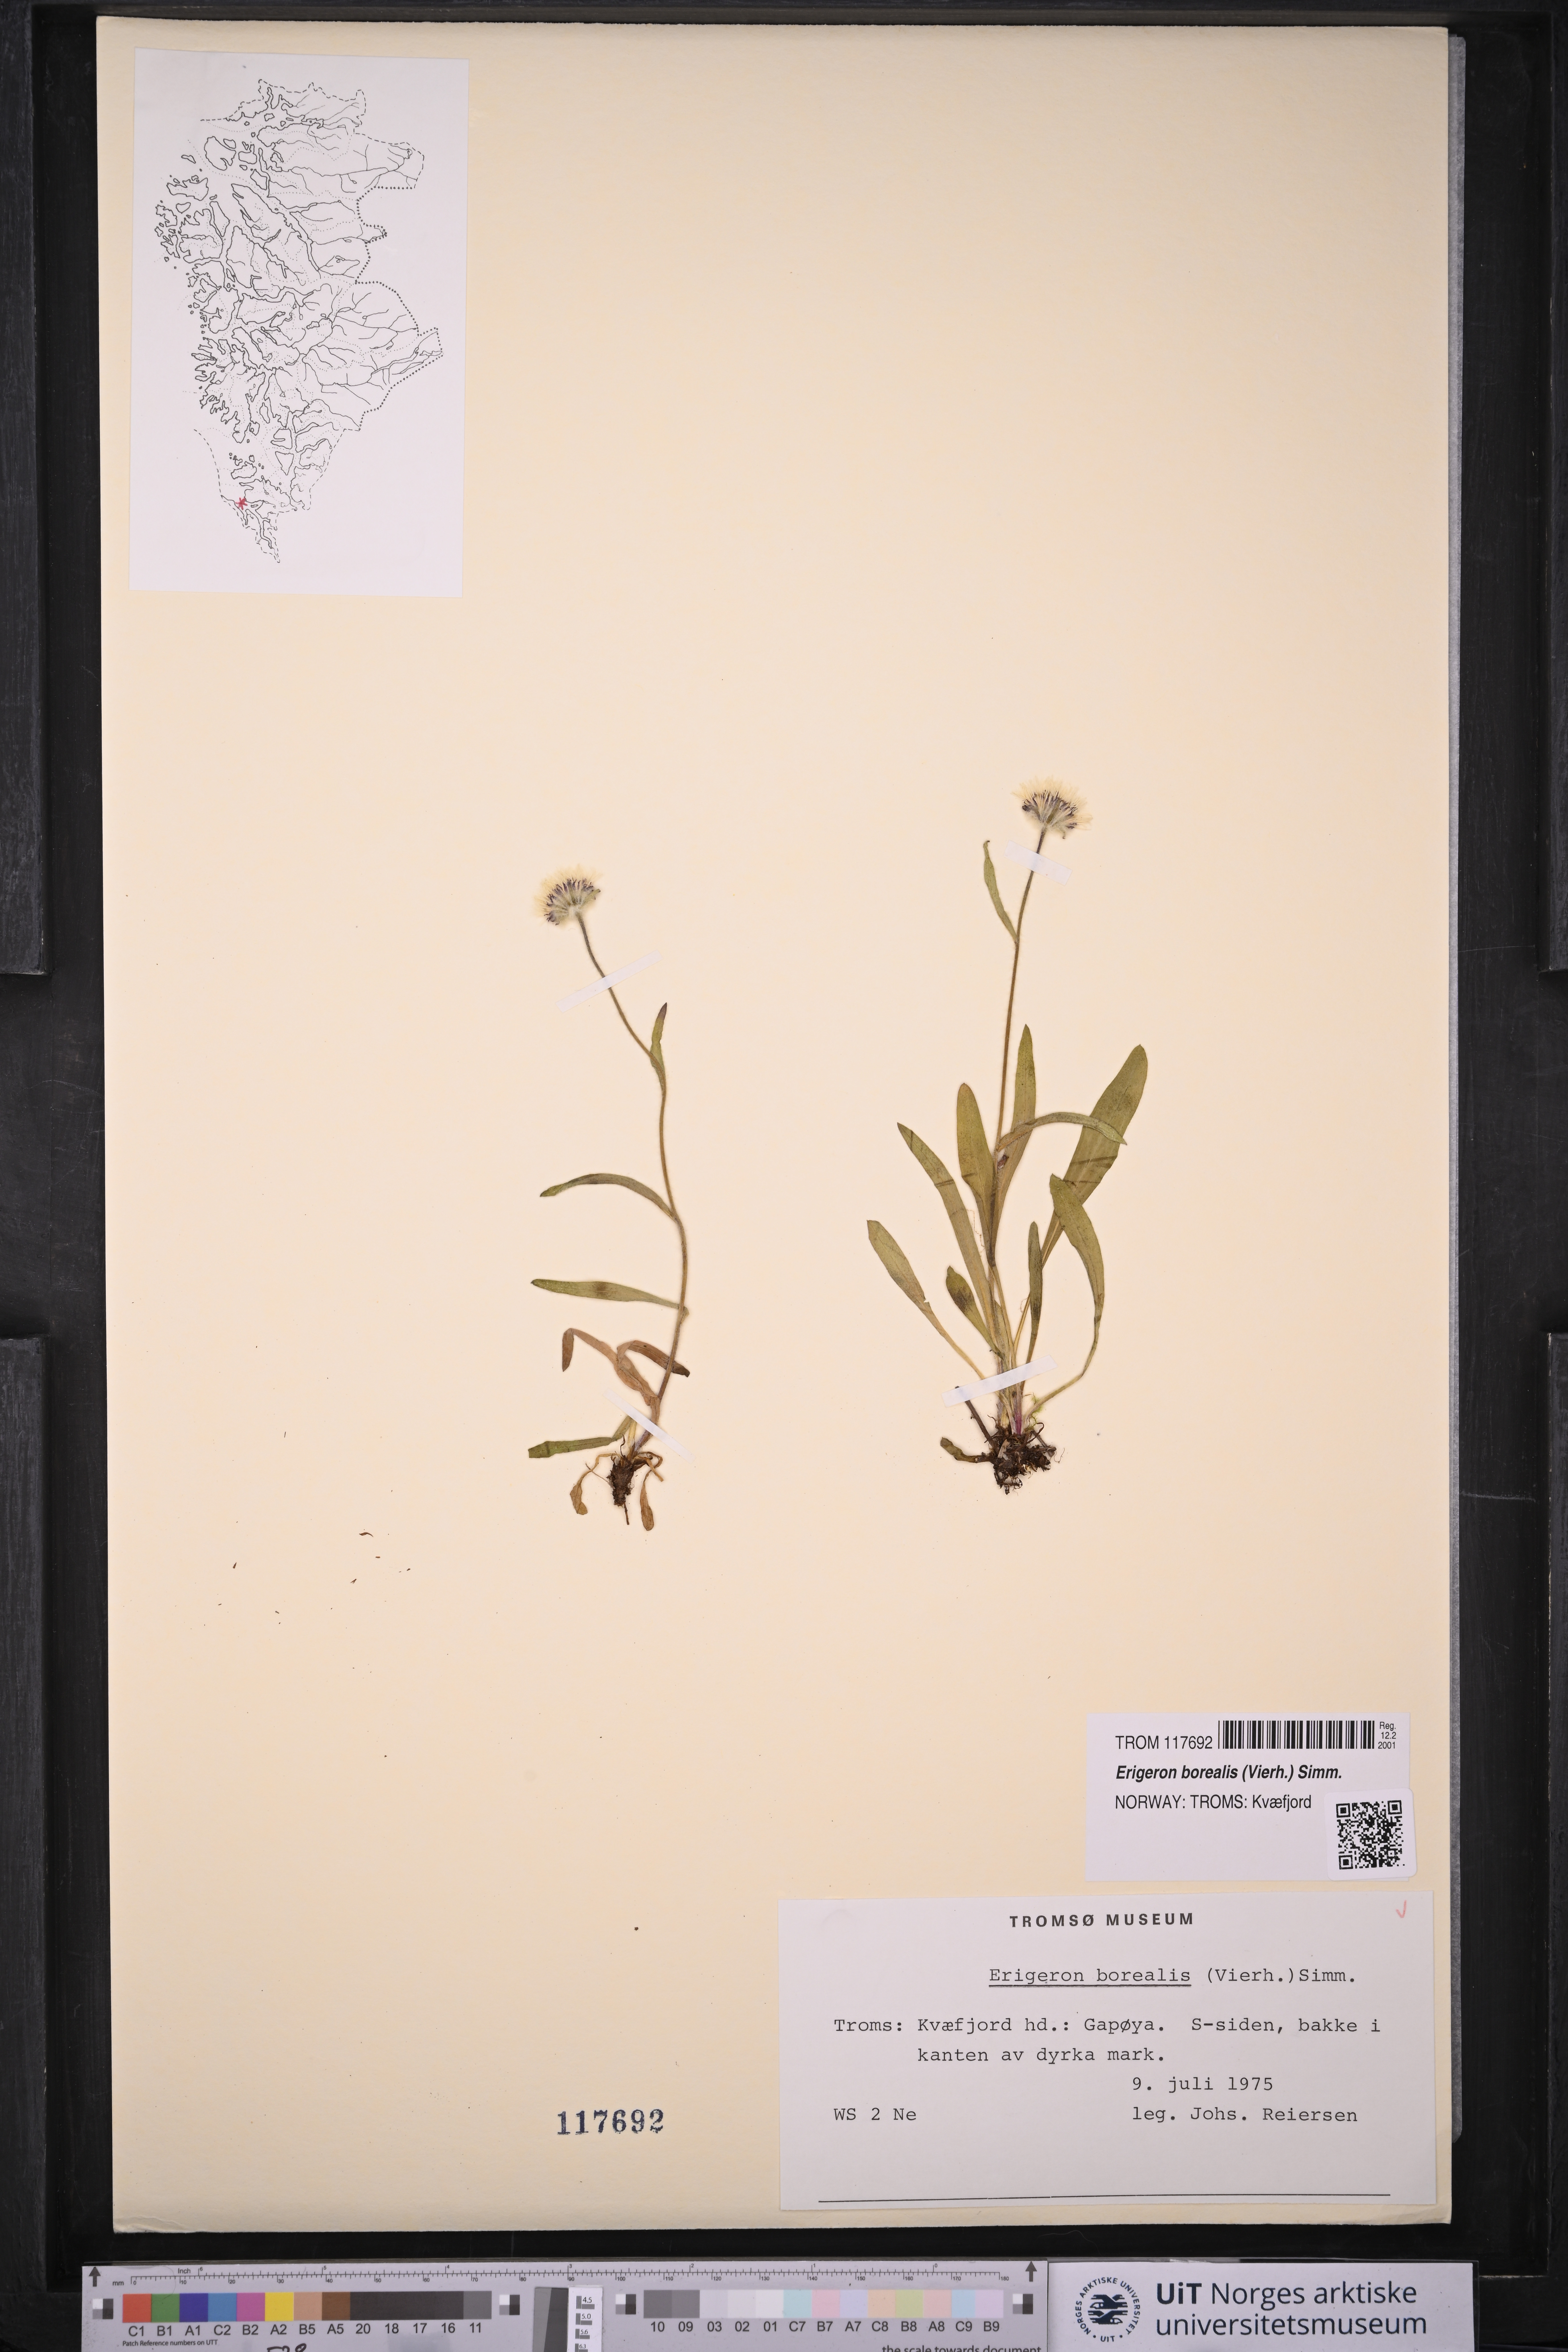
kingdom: Plantae
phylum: Tracheophyta
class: Magnoliopsida
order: Asterales
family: Asteraceae
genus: Erigeron
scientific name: Erigeron borealis
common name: Alpine fleabane
